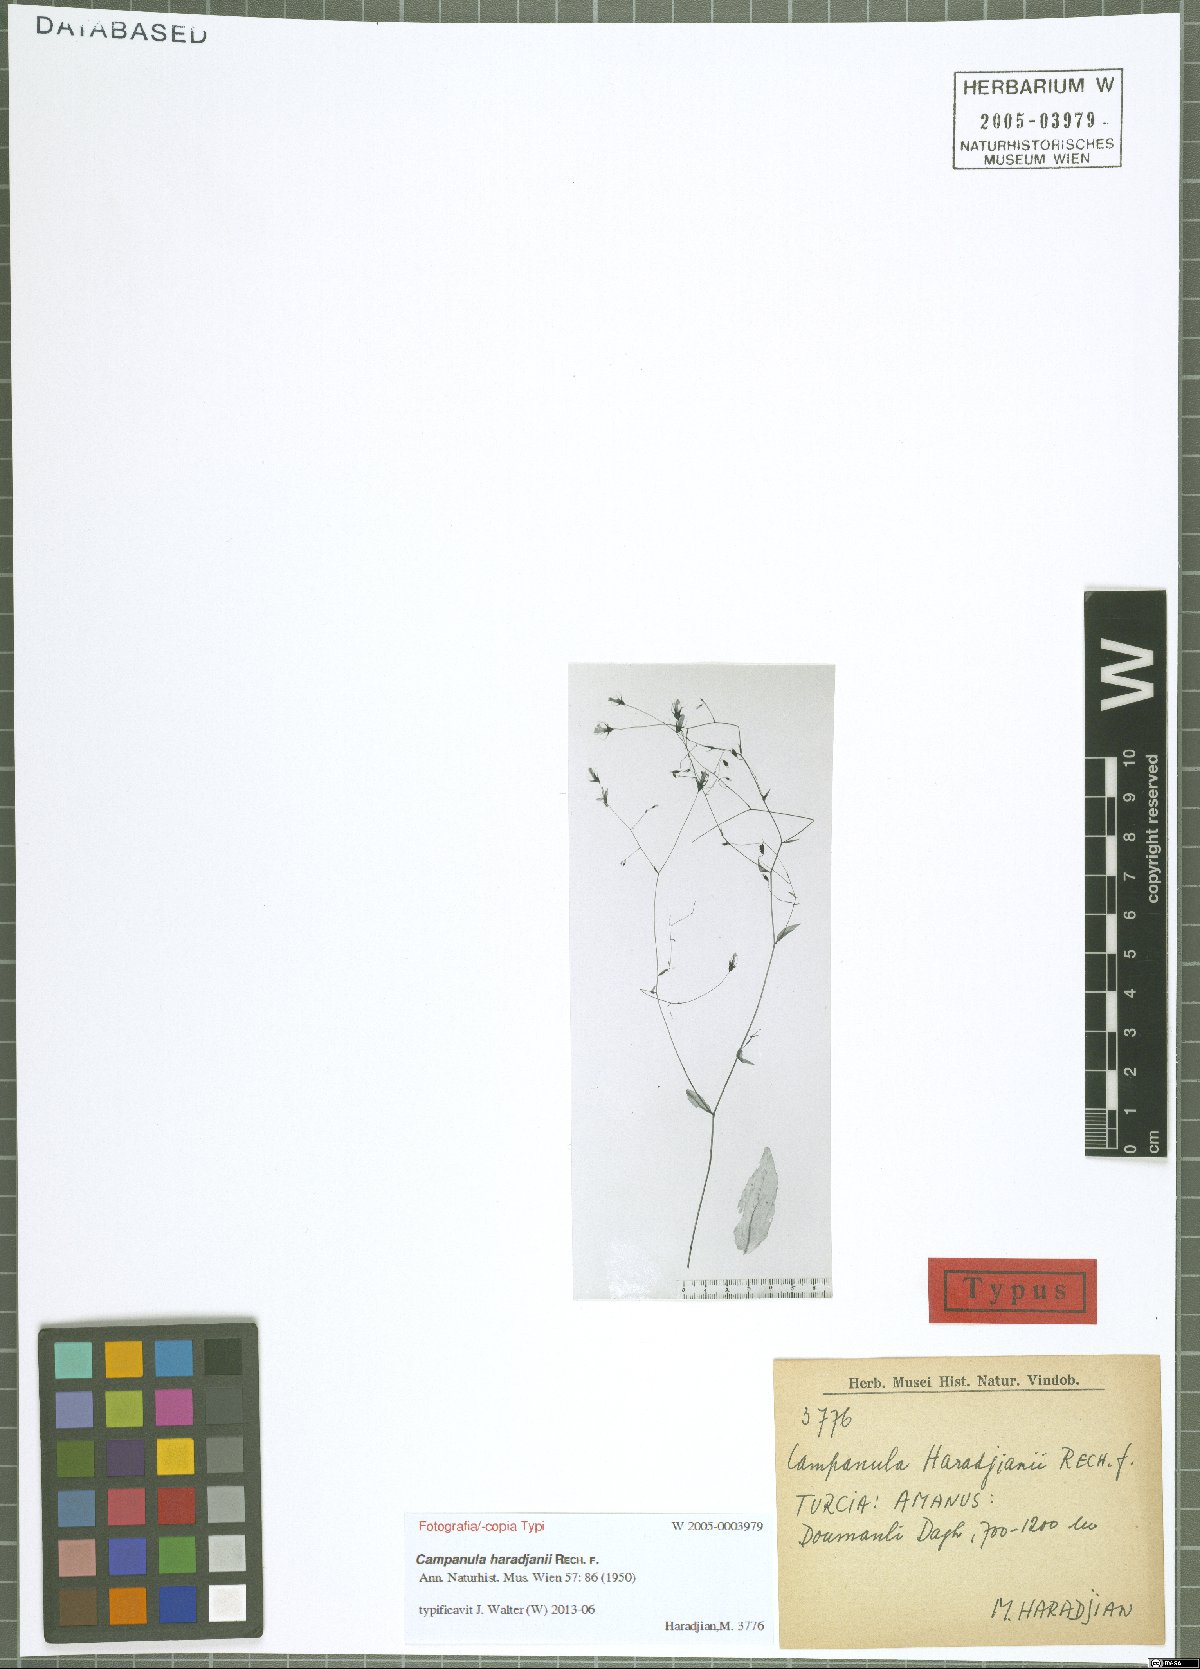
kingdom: Plantae
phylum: Tracheophyta
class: Magnoliopsida
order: Asterales
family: Campanulaceae
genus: Campanula
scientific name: Campanula haradjanii
